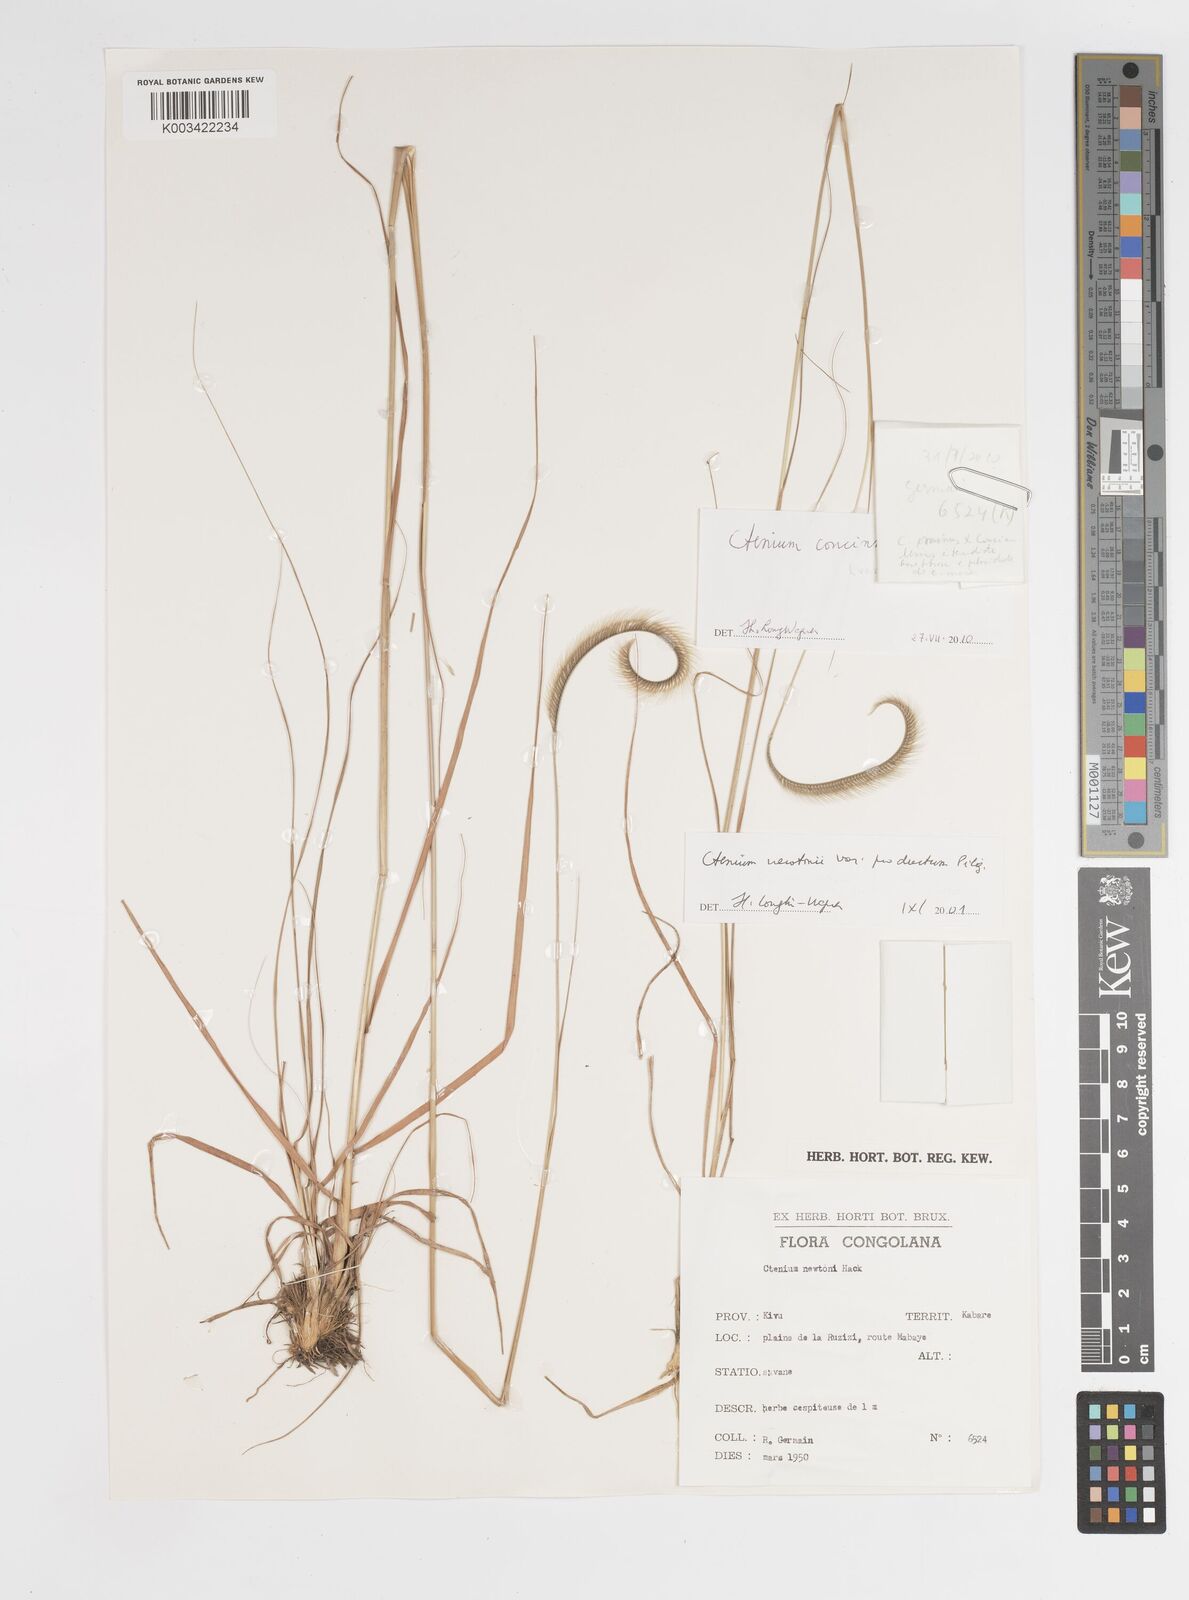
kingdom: Plantae
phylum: Tracheophyta
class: Liliopsida
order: Poales
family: Poaceae
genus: Ctenium
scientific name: Ctenium concinnum
